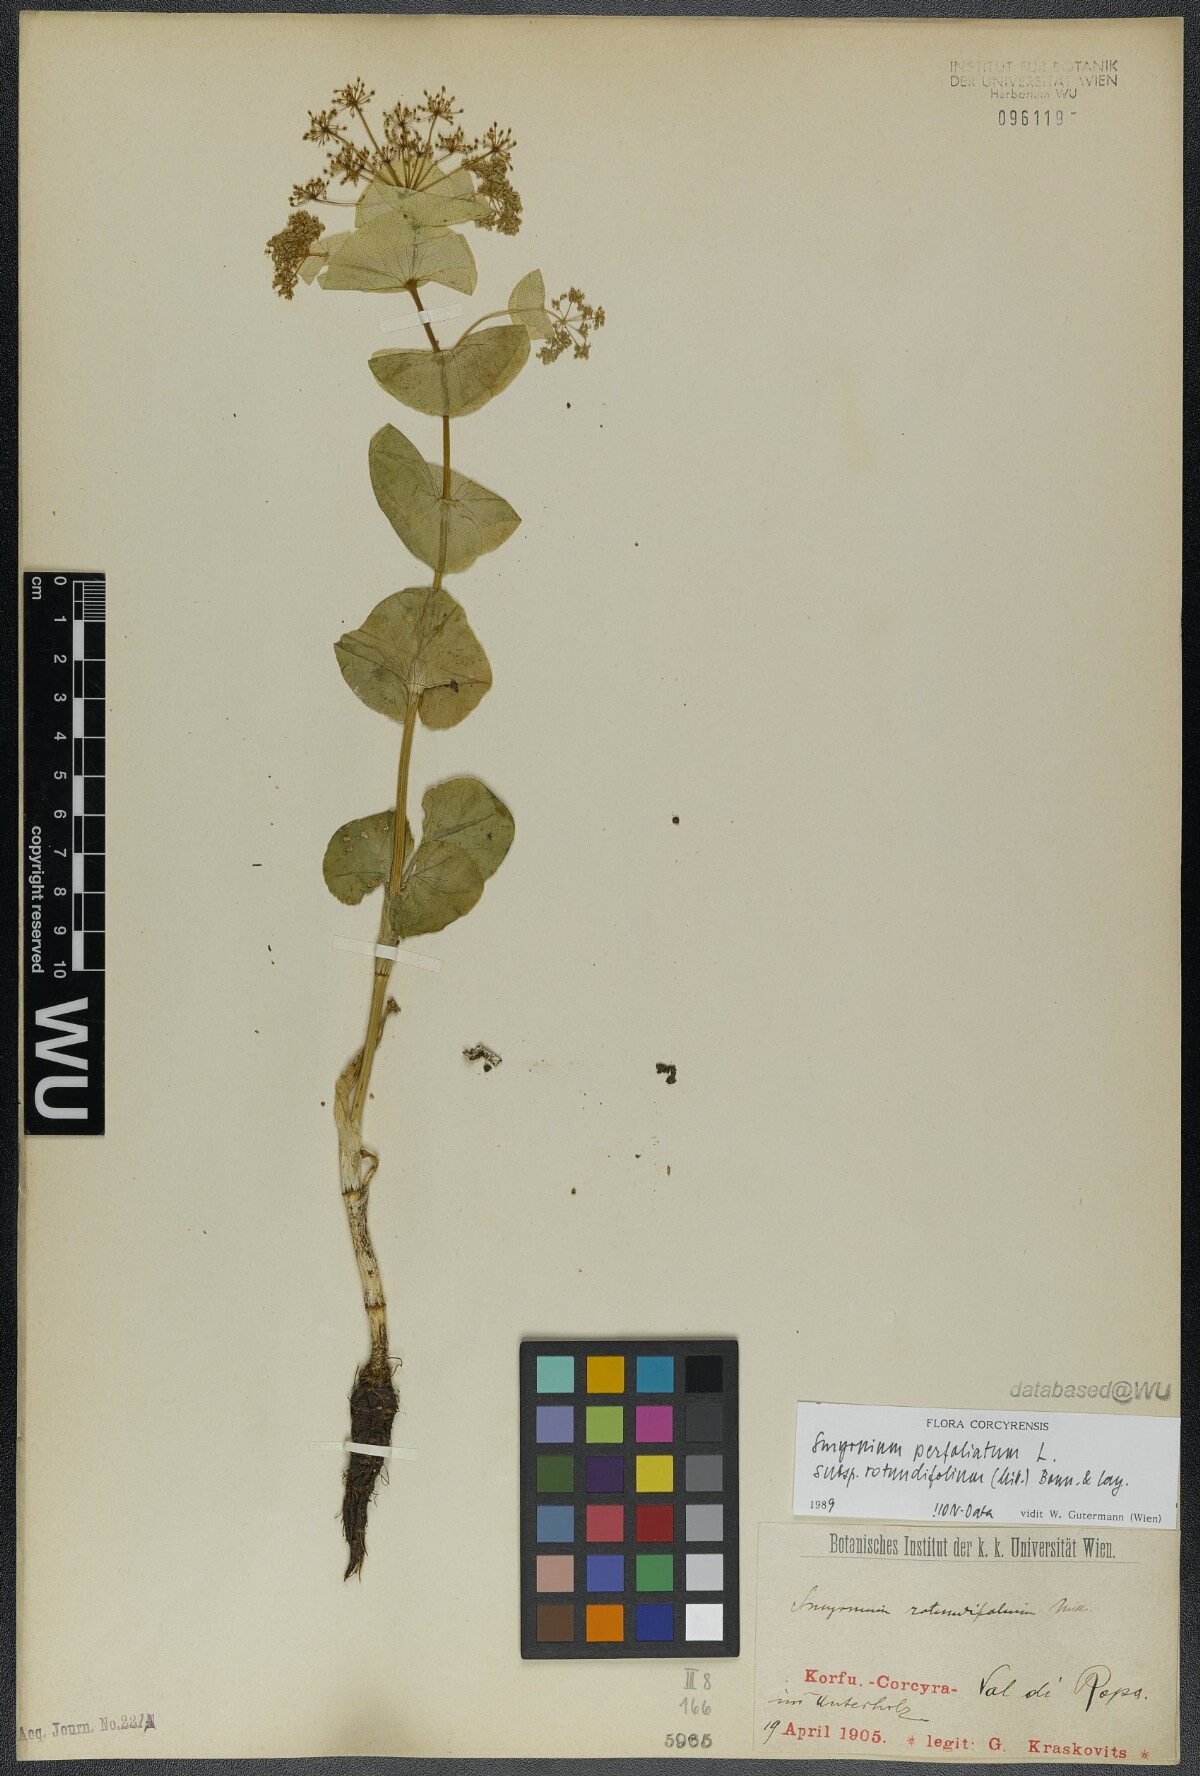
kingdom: Plantae
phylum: Tracheophyta
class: Magnoliopsida
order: Apiales
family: Apiaceae
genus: Smyrnium
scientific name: Smyrnium perfoliatum
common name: Perfoliate alexanders
